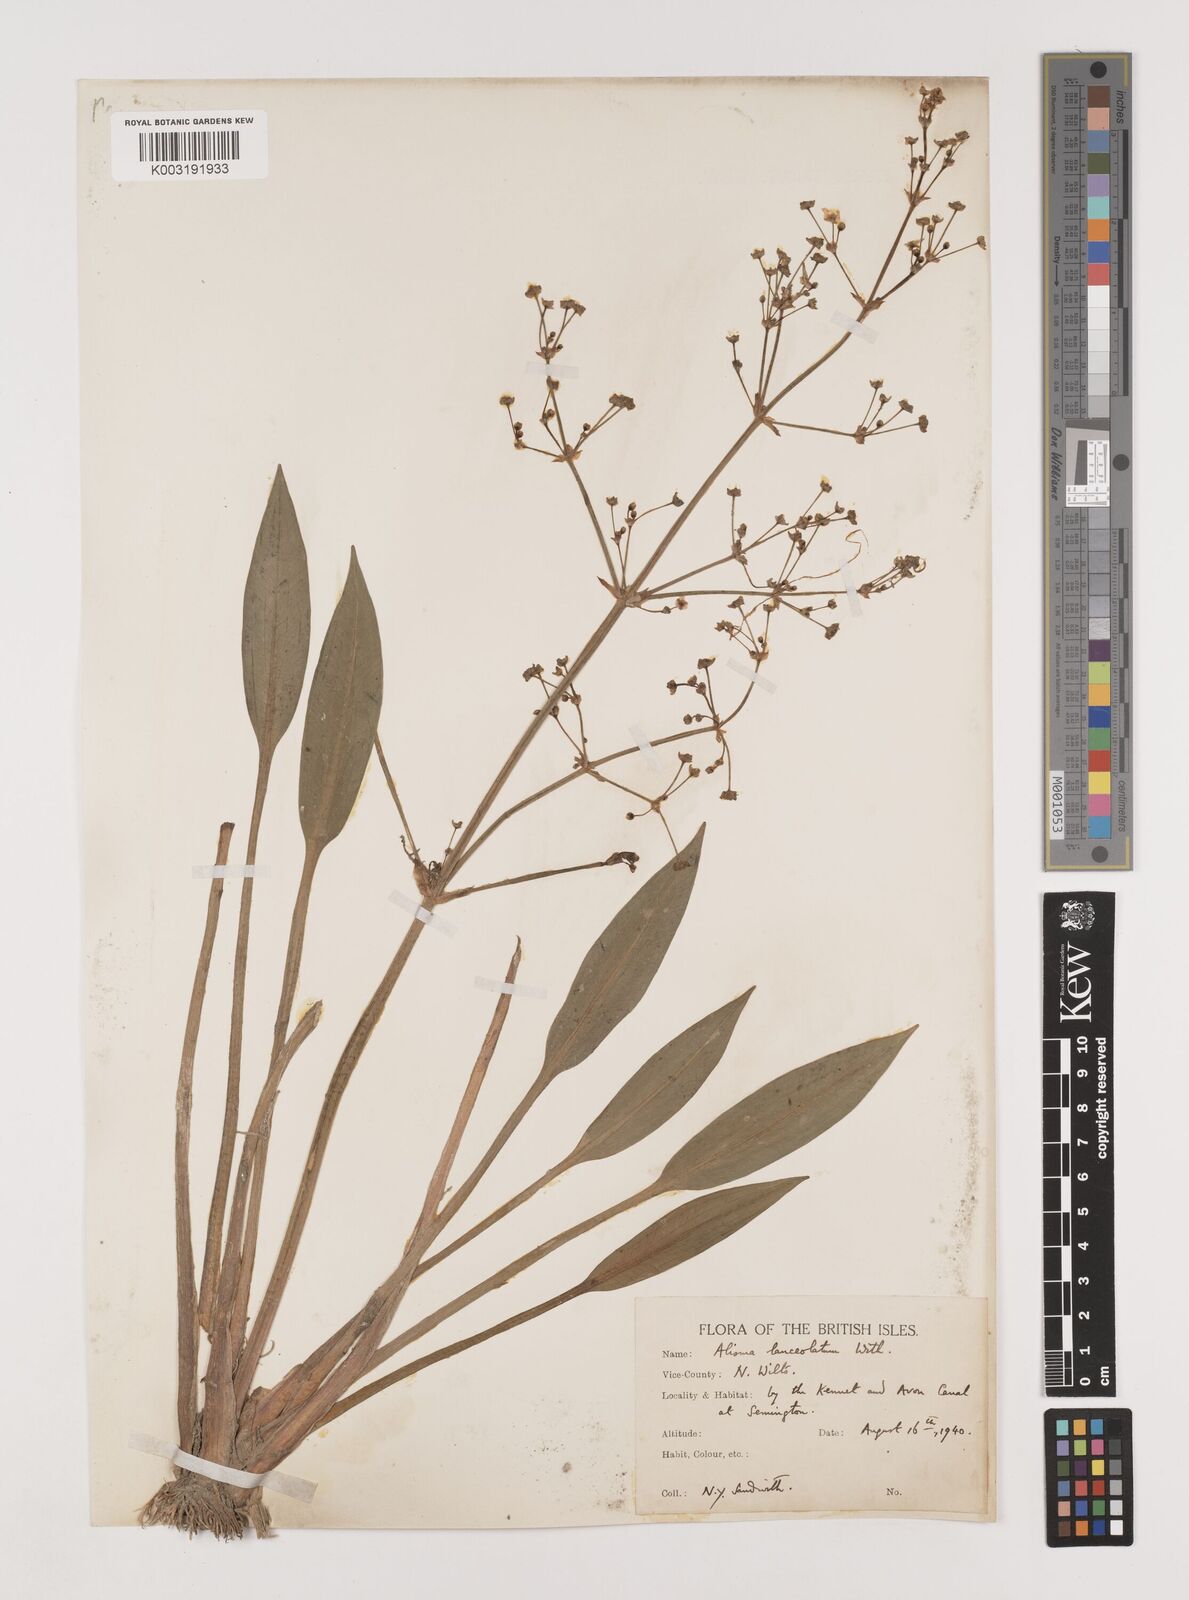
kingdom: Plantae
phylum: Tracheophyta
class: Liliopsida
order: Alismatales
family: Alismataceae
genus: Alisma
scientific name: Alisma lanceolatum
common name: Narrow-leaved water-plantain
